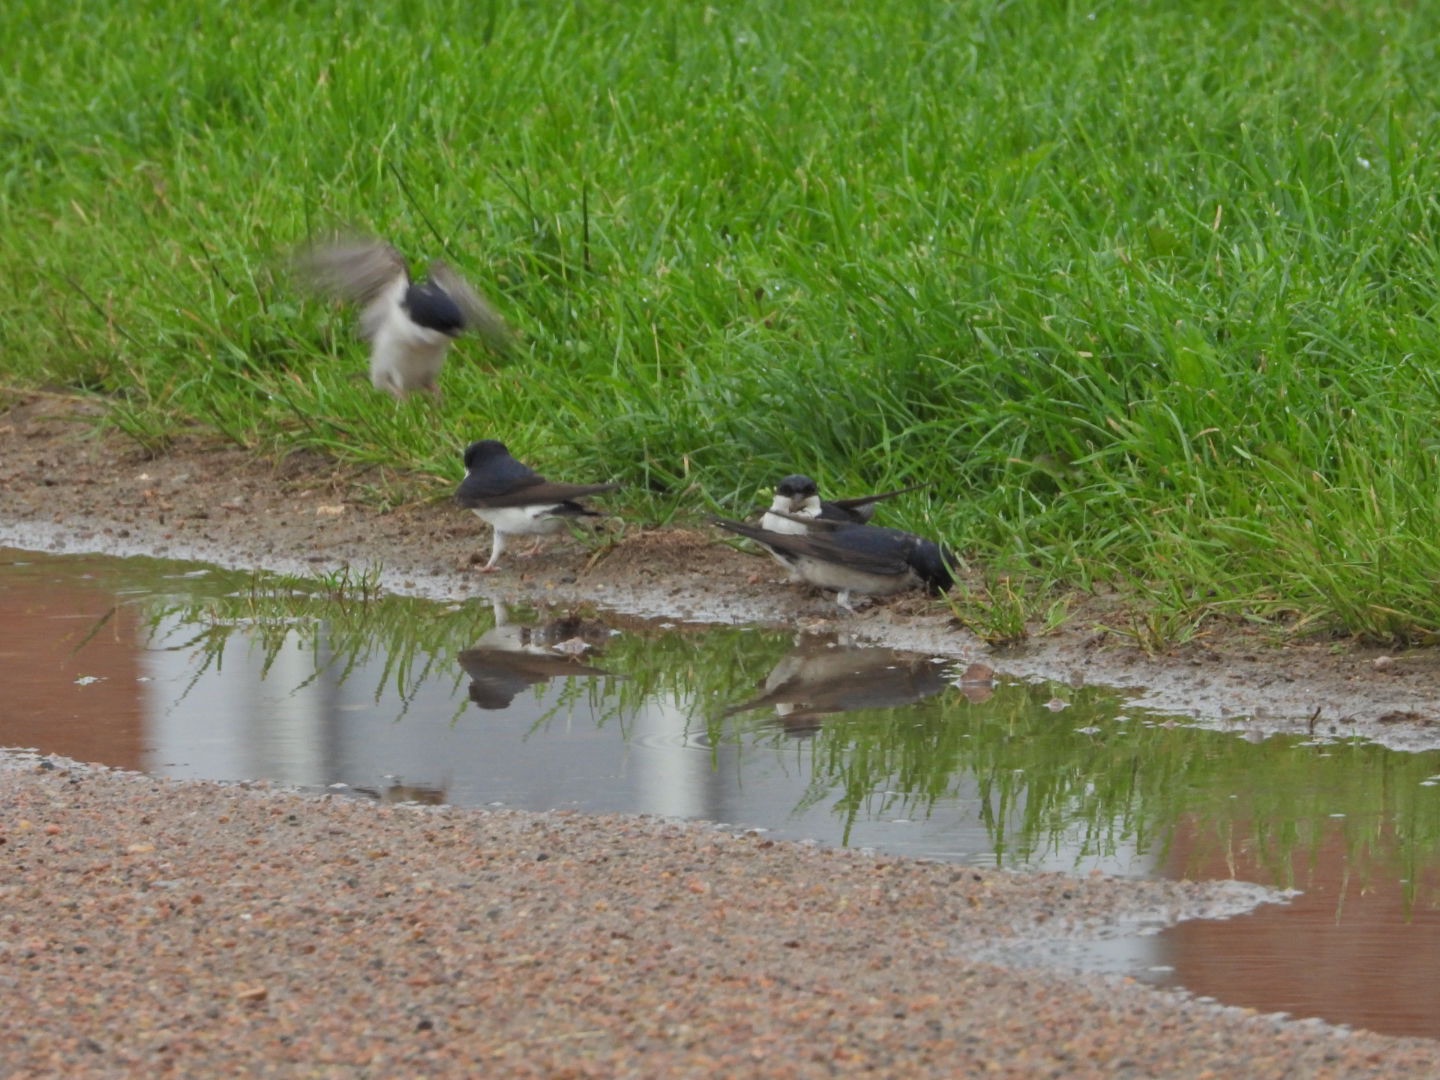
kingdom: Animalia
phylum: Chordata
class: Aves
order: Passeriformes
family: Hirundinidae
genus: Delichon
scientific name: Delichon urbicum
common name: Bysvale
